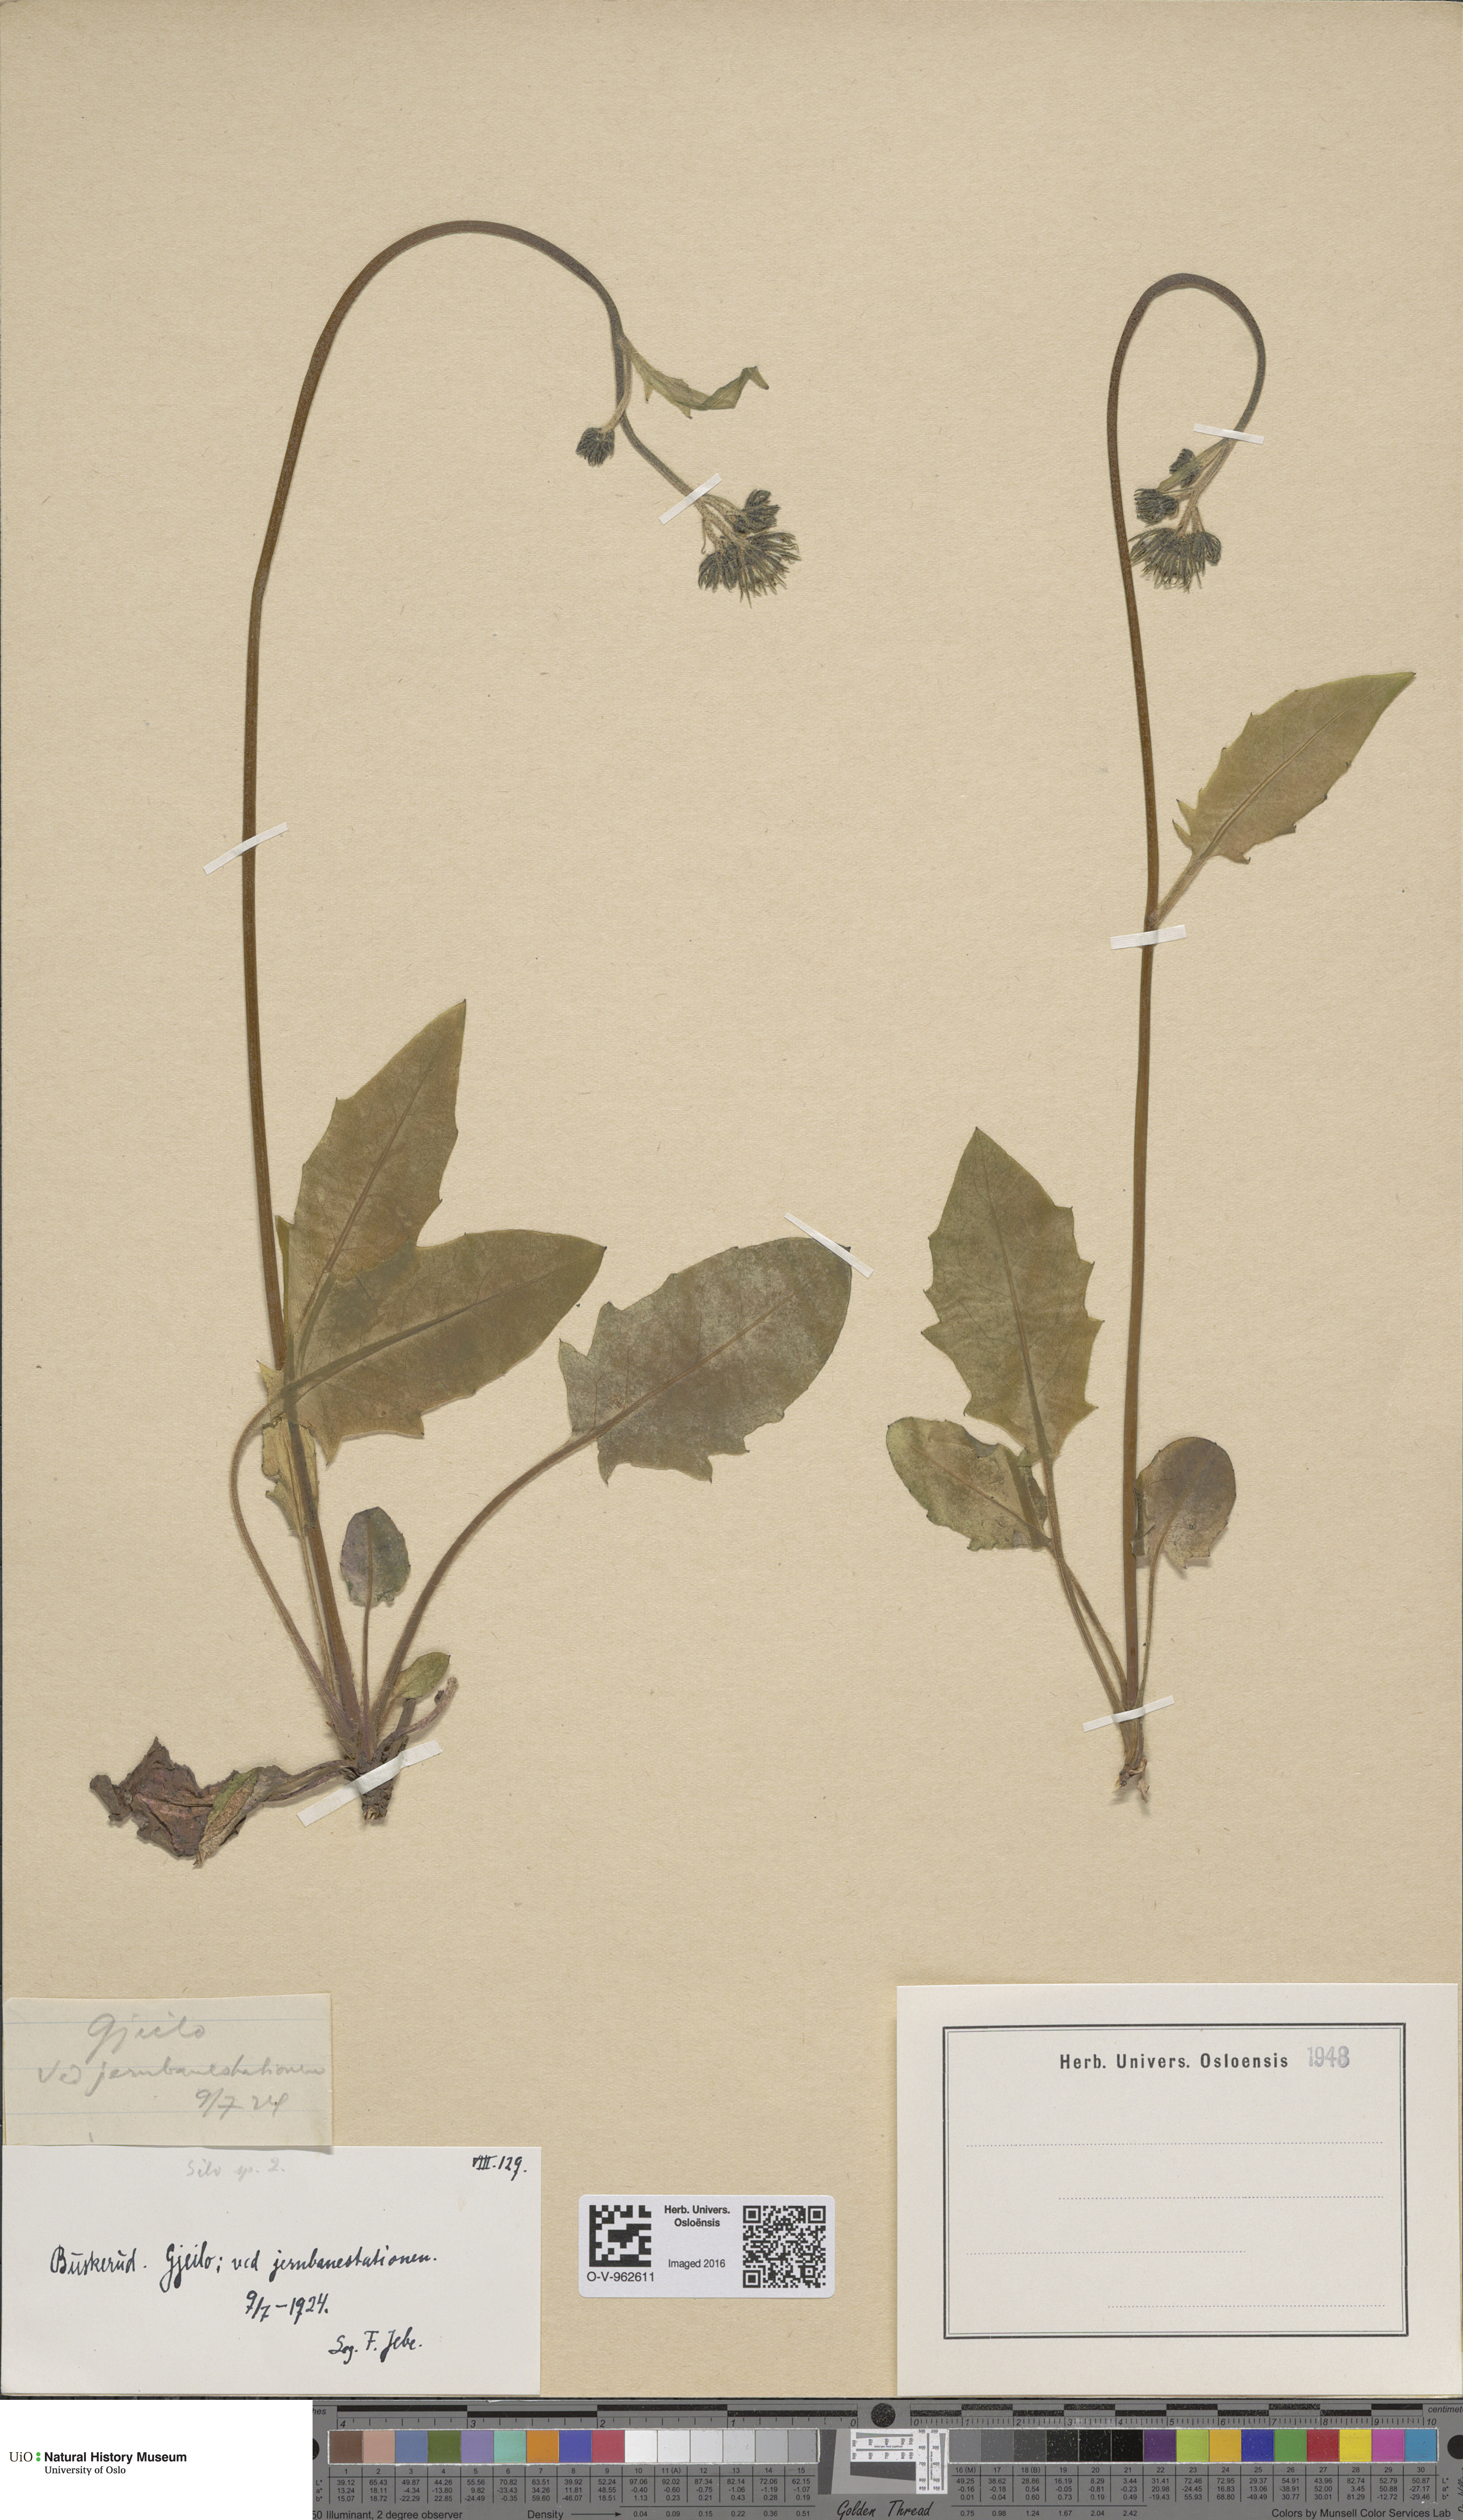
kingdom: Plantae
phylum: Tracheophyta
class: Magnoliopsida
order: Asterales
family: Asteraceae
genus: Hieracium
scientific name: Hieracium
